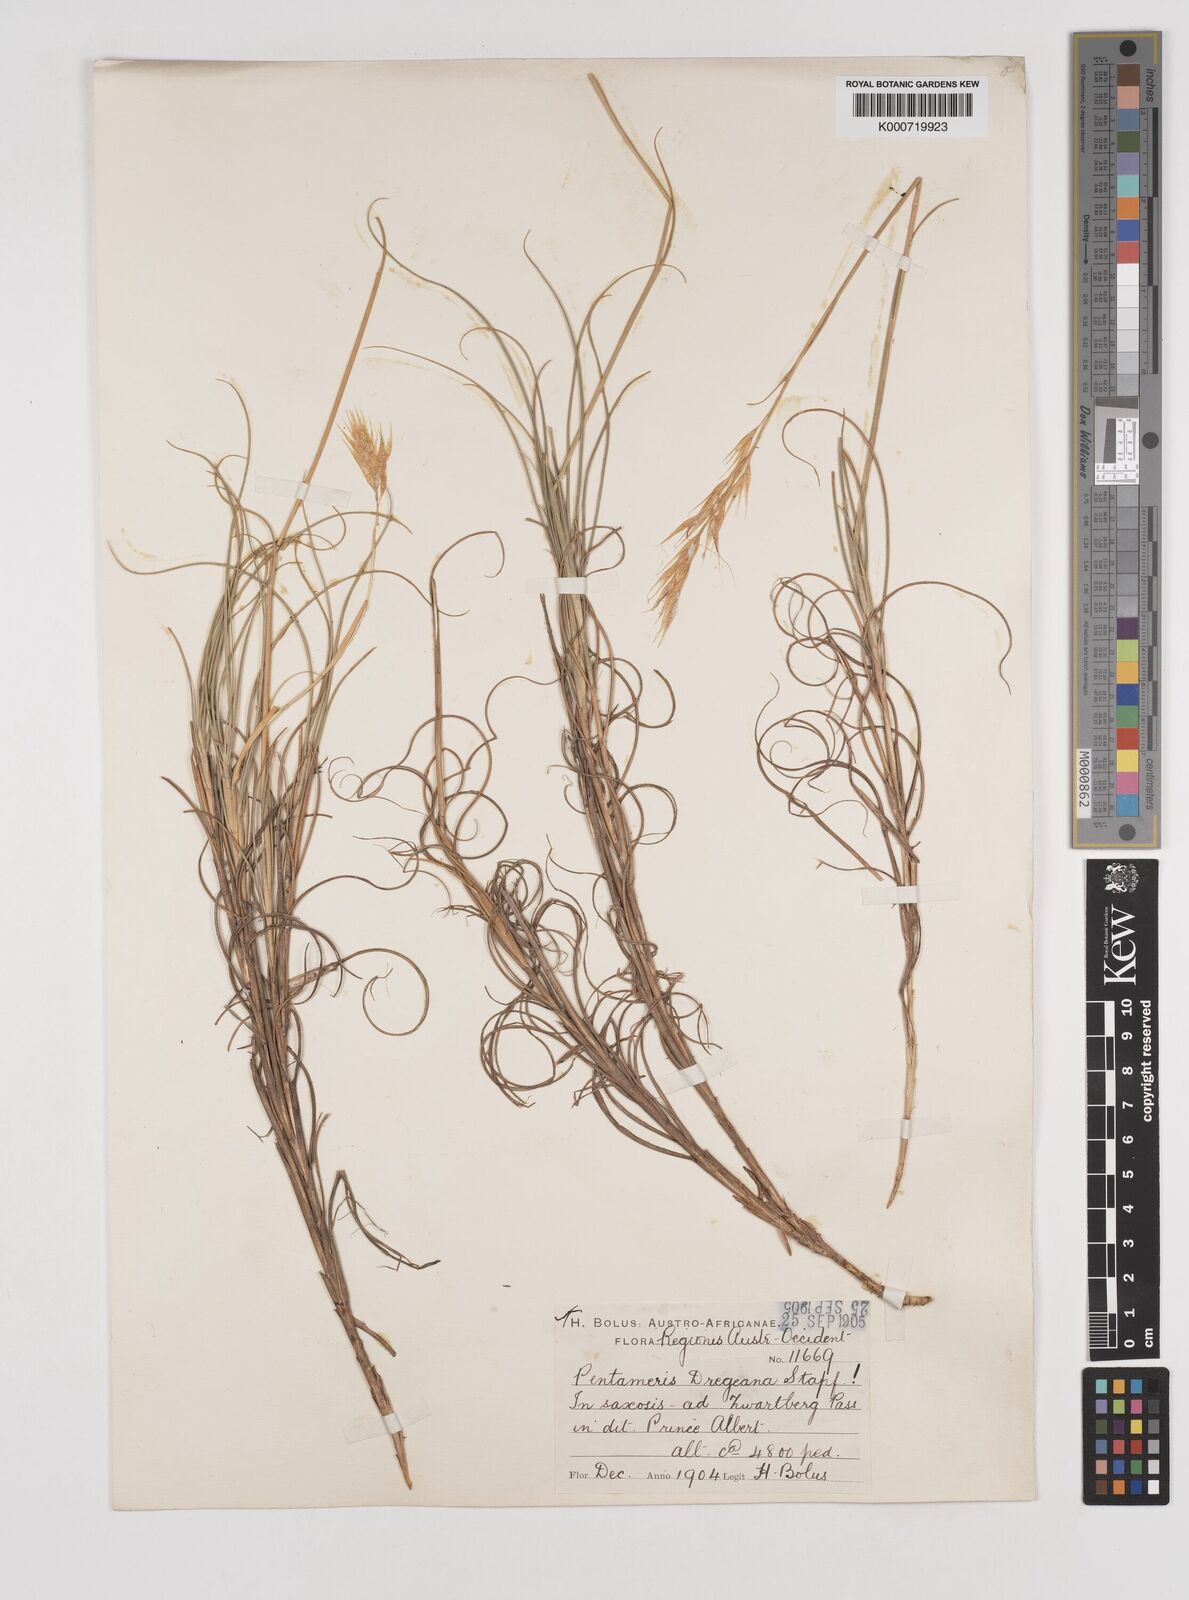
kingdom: Plantae
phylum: Tracheophyta
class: Liliopsida
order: Poales
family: Poaceae
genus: Pentameris
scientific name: Pentameris dregeana
